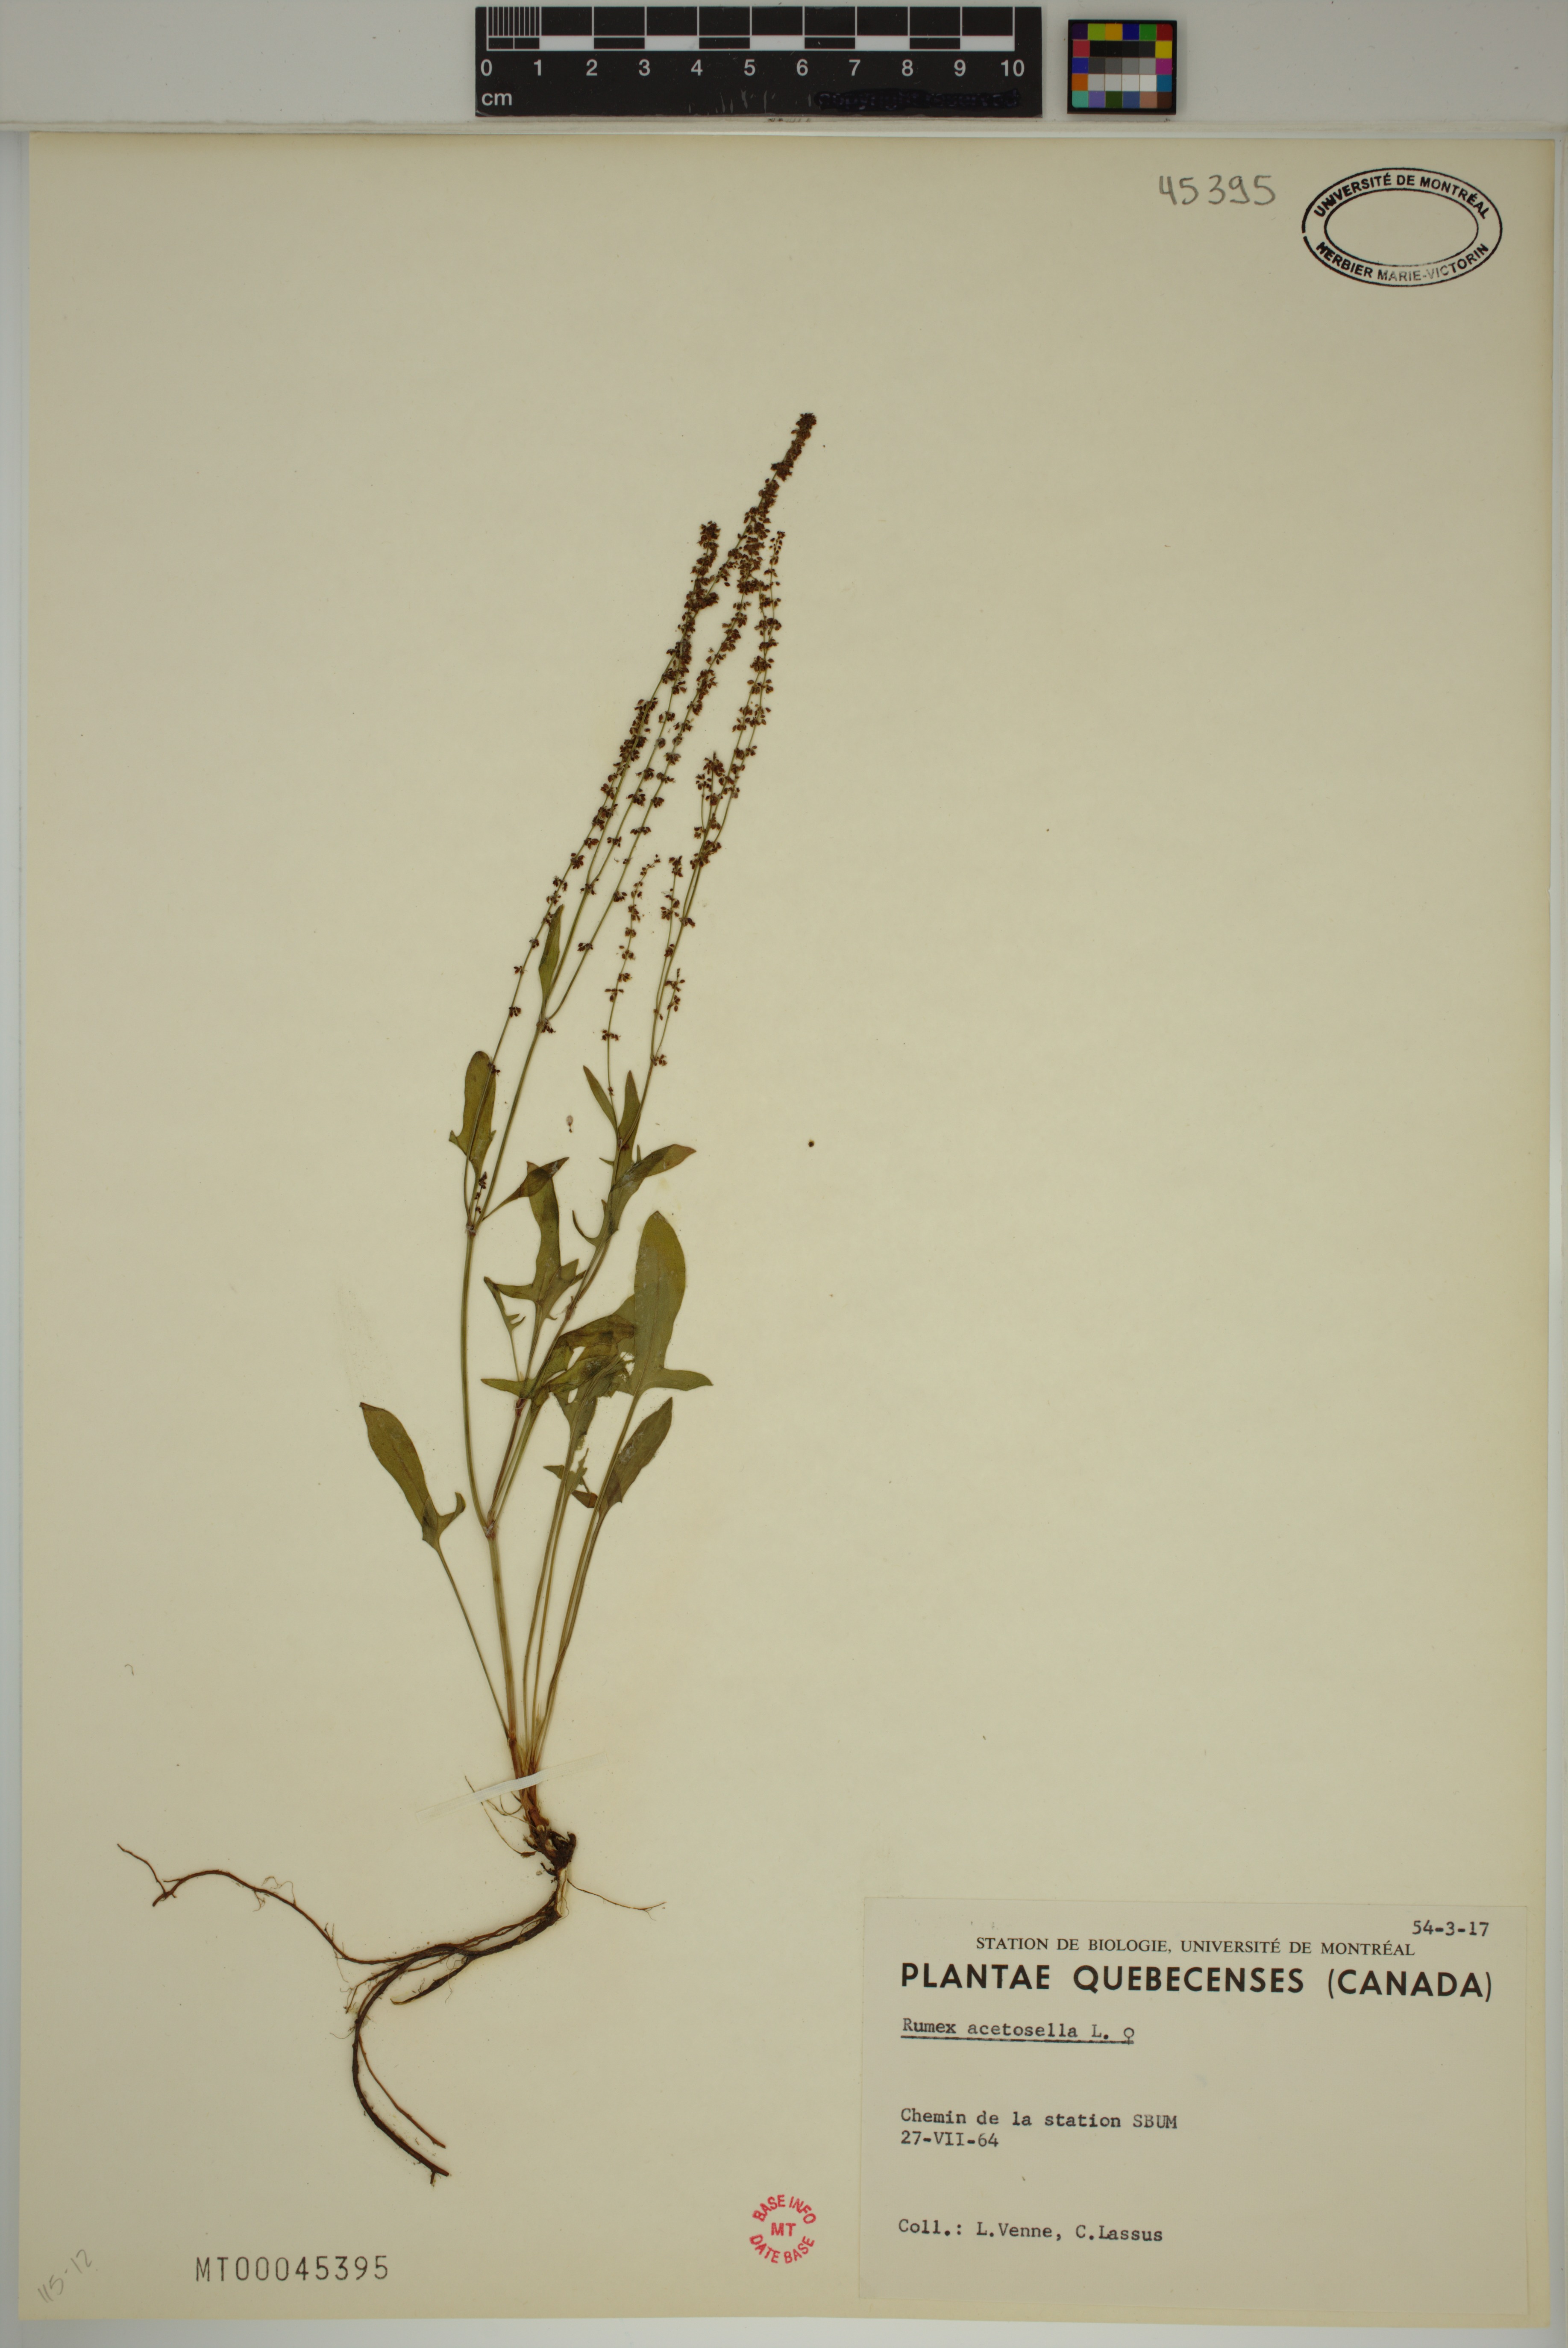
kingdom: Plantae
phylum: Tracheophyta
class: Magnoliopsida
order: Caryophyllales
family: Polygonaceae
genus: Rumex
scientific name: Rumex acetosella
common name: Common sheep sorrel
